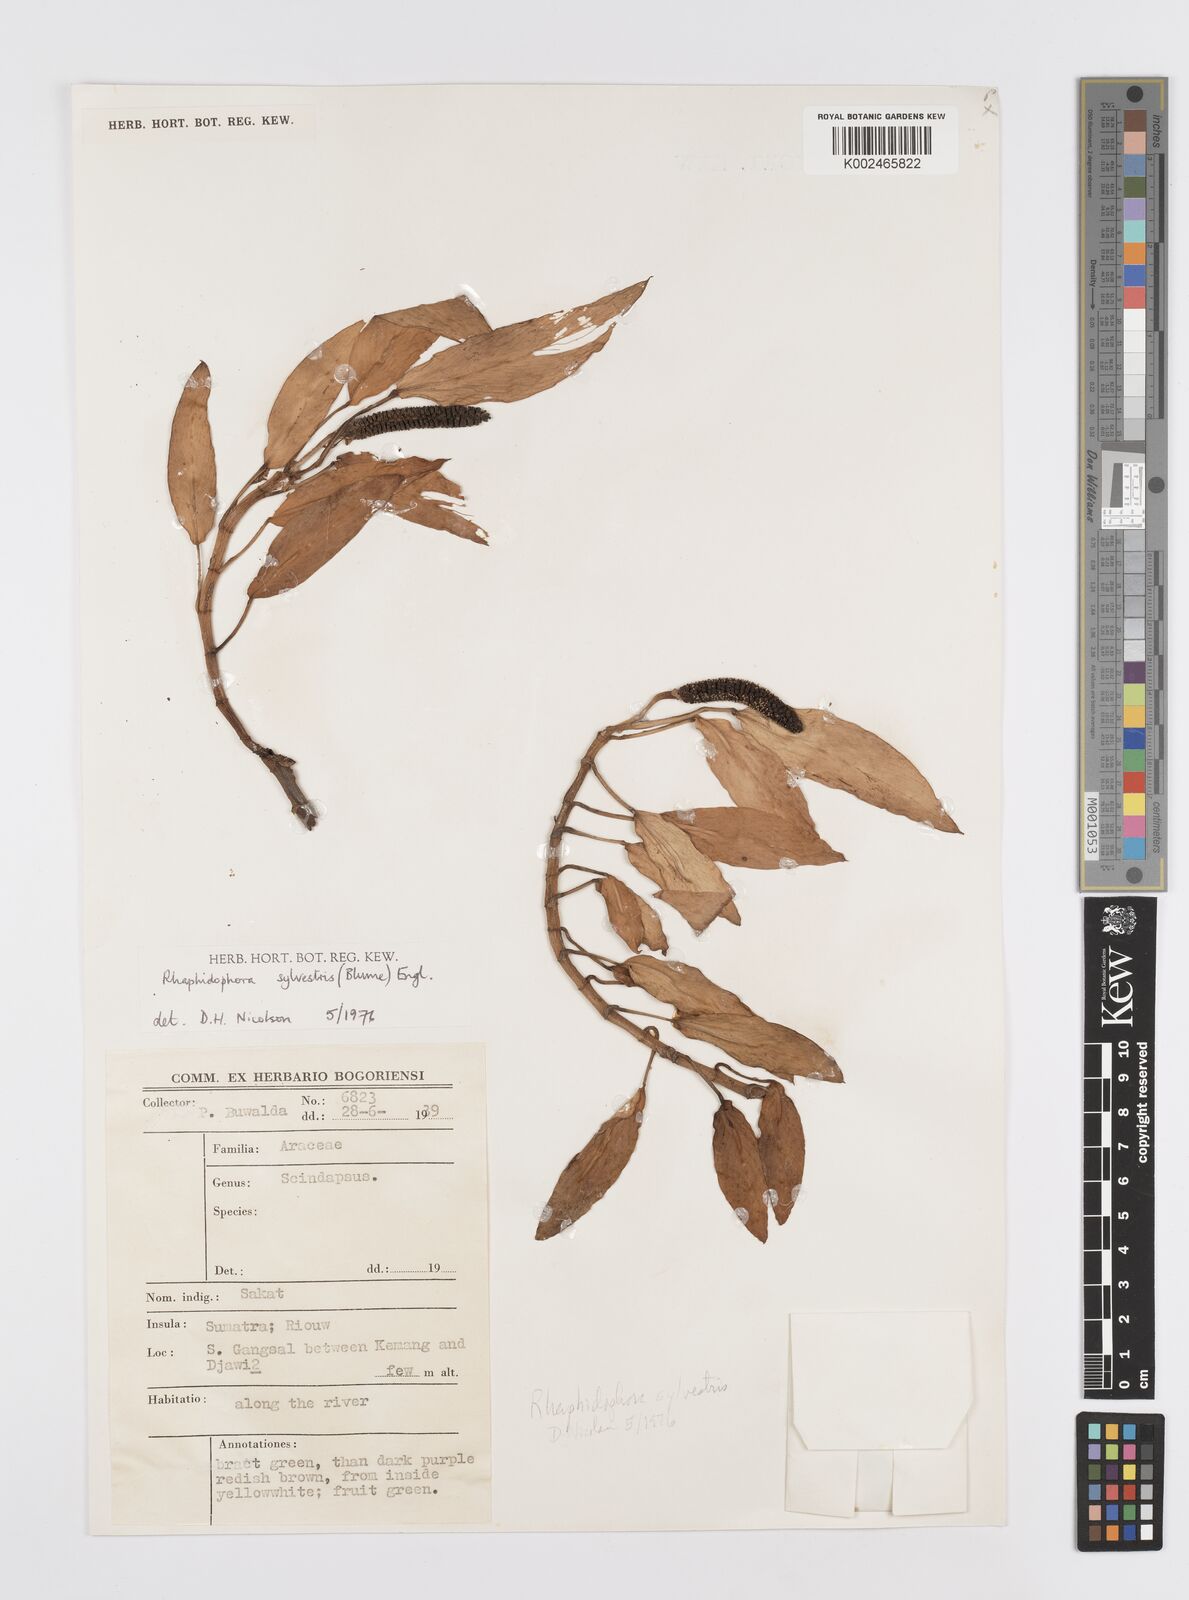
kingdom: Plantae
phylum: Tracheophyta
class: Liliopsida
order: Alismatales
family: Araceae
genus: Rhaphidophora
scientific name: Rhaphidophora minor
